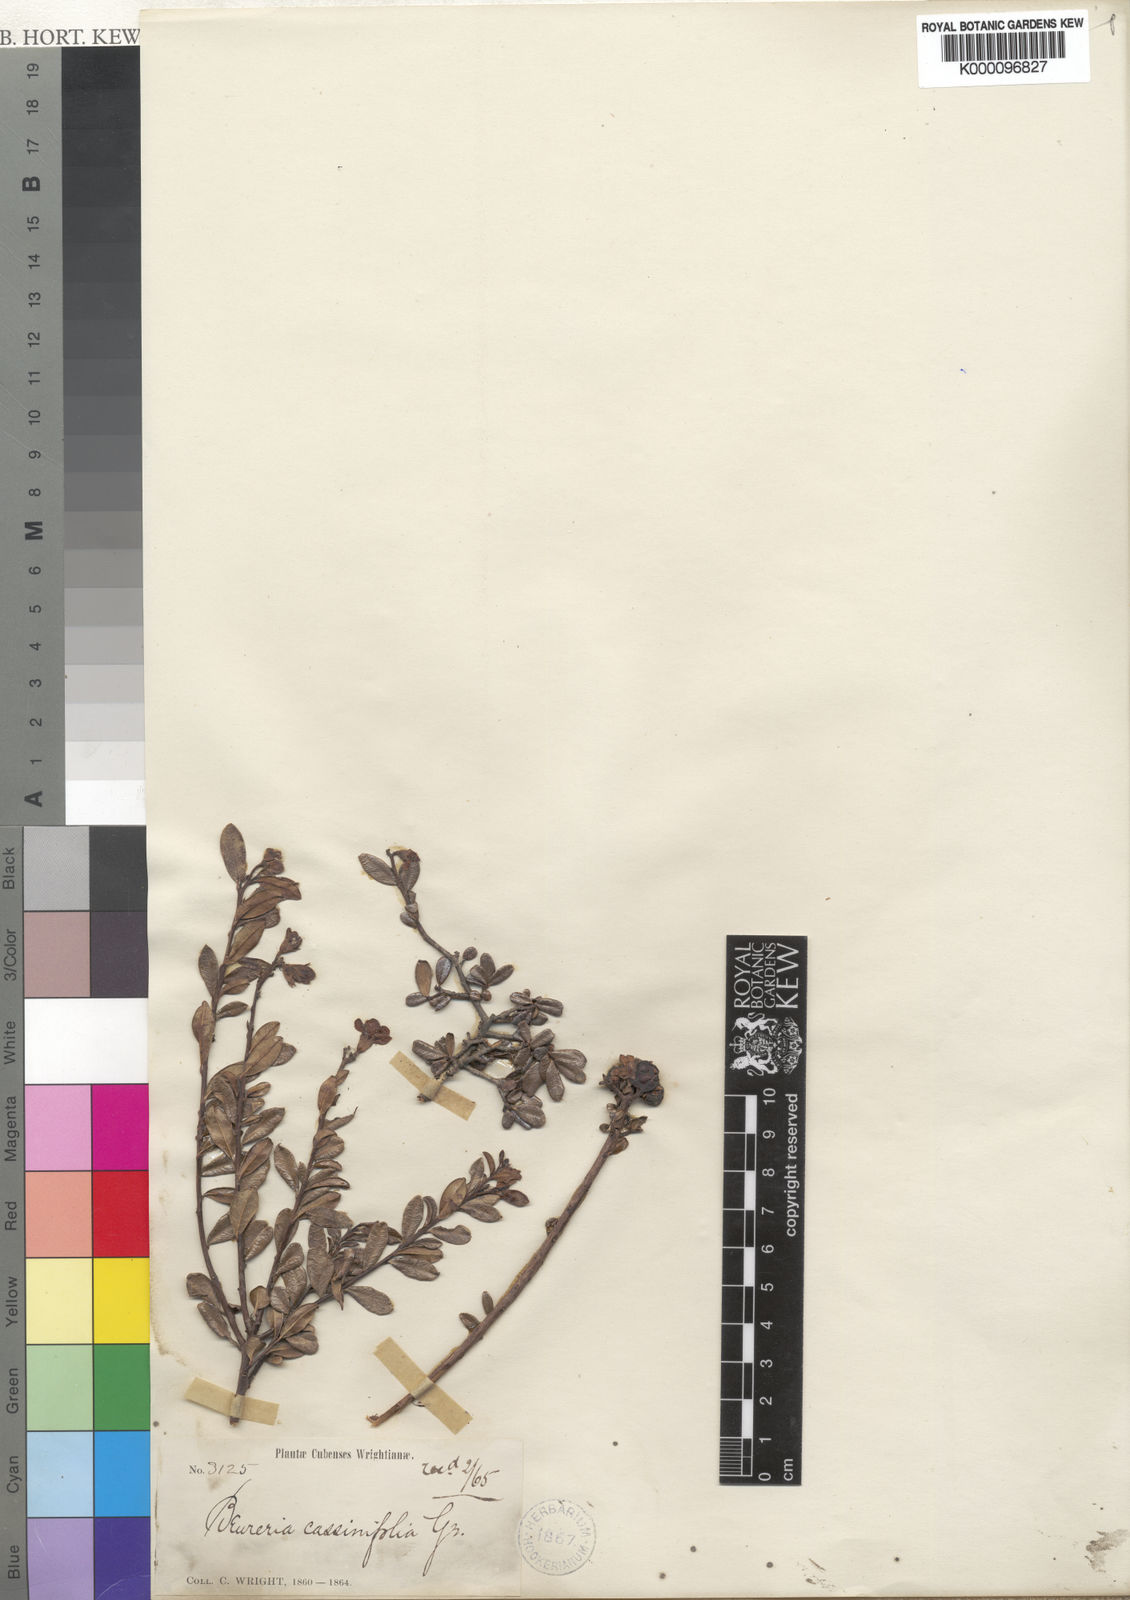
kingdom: Plantae
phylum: Tracheophyta
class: Magnoliopsida
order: Boraginales
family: Ehretiaceae
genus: Bourreria
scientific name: Bourreria havanensis
